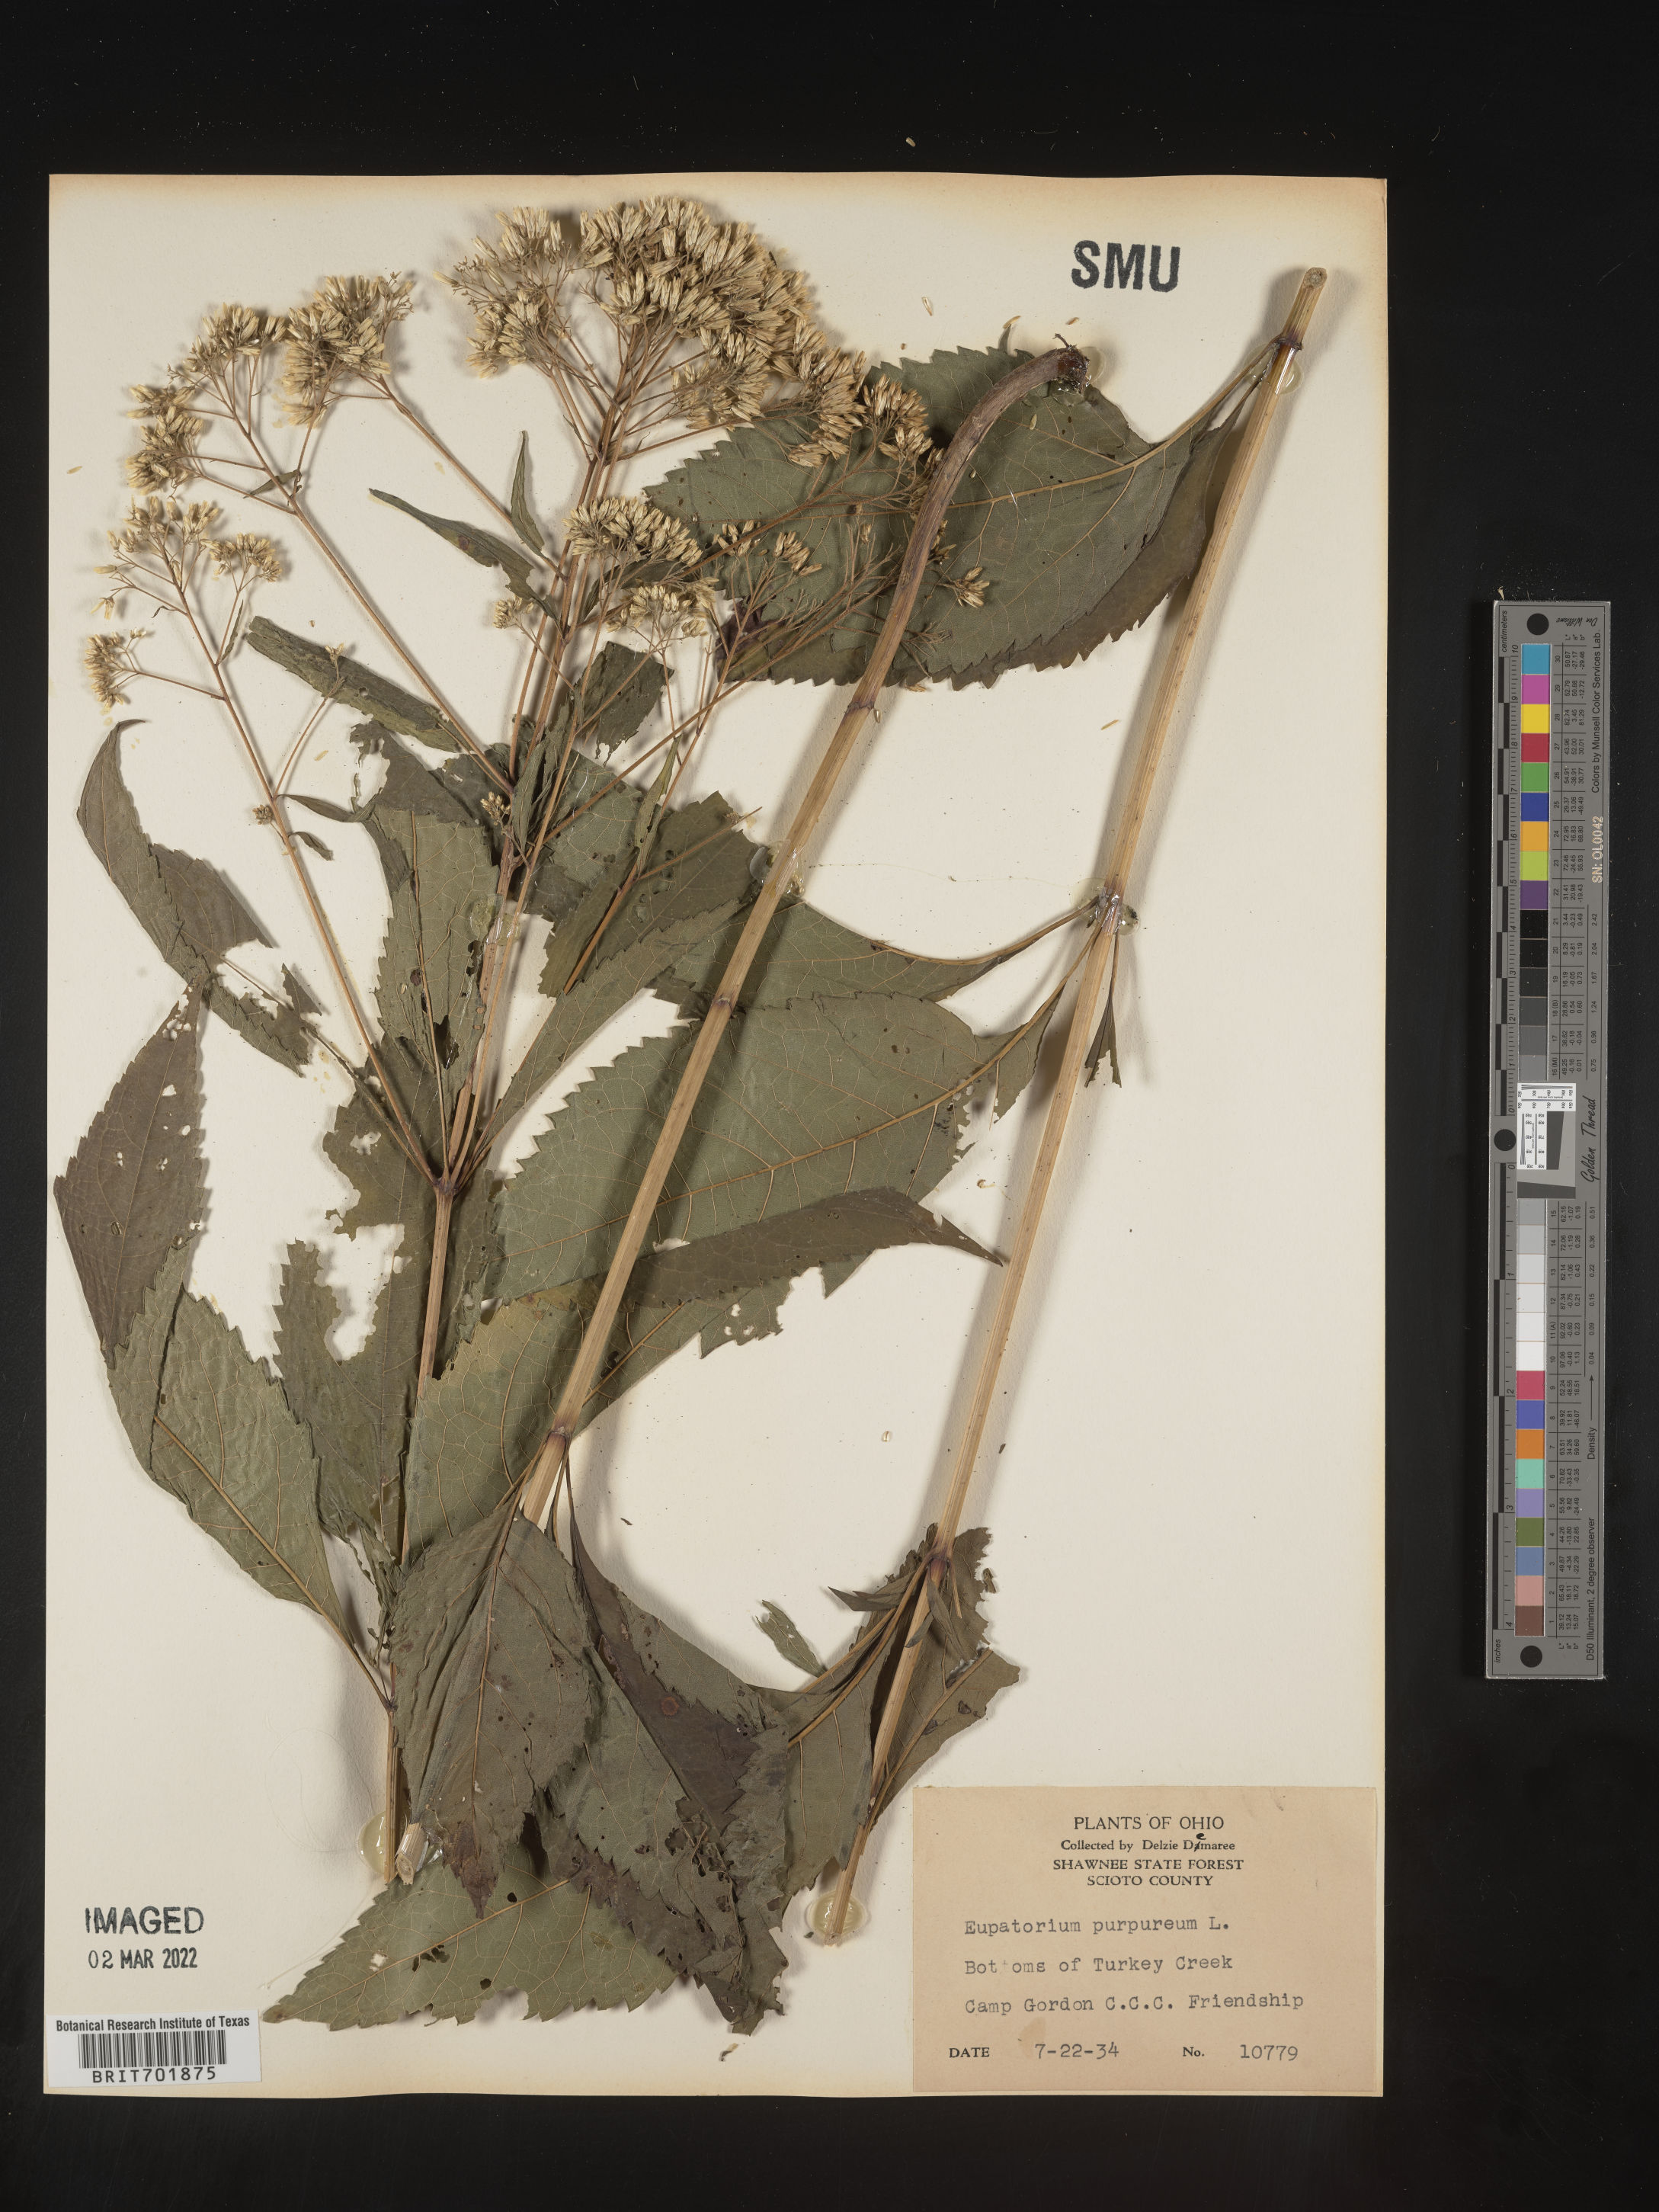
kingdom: Plantae
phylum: Tracheophyta
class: Magnoliopsida
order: Asterales
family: Asteraceae
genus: Eupatorium
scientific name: Eupatorium quaternum
